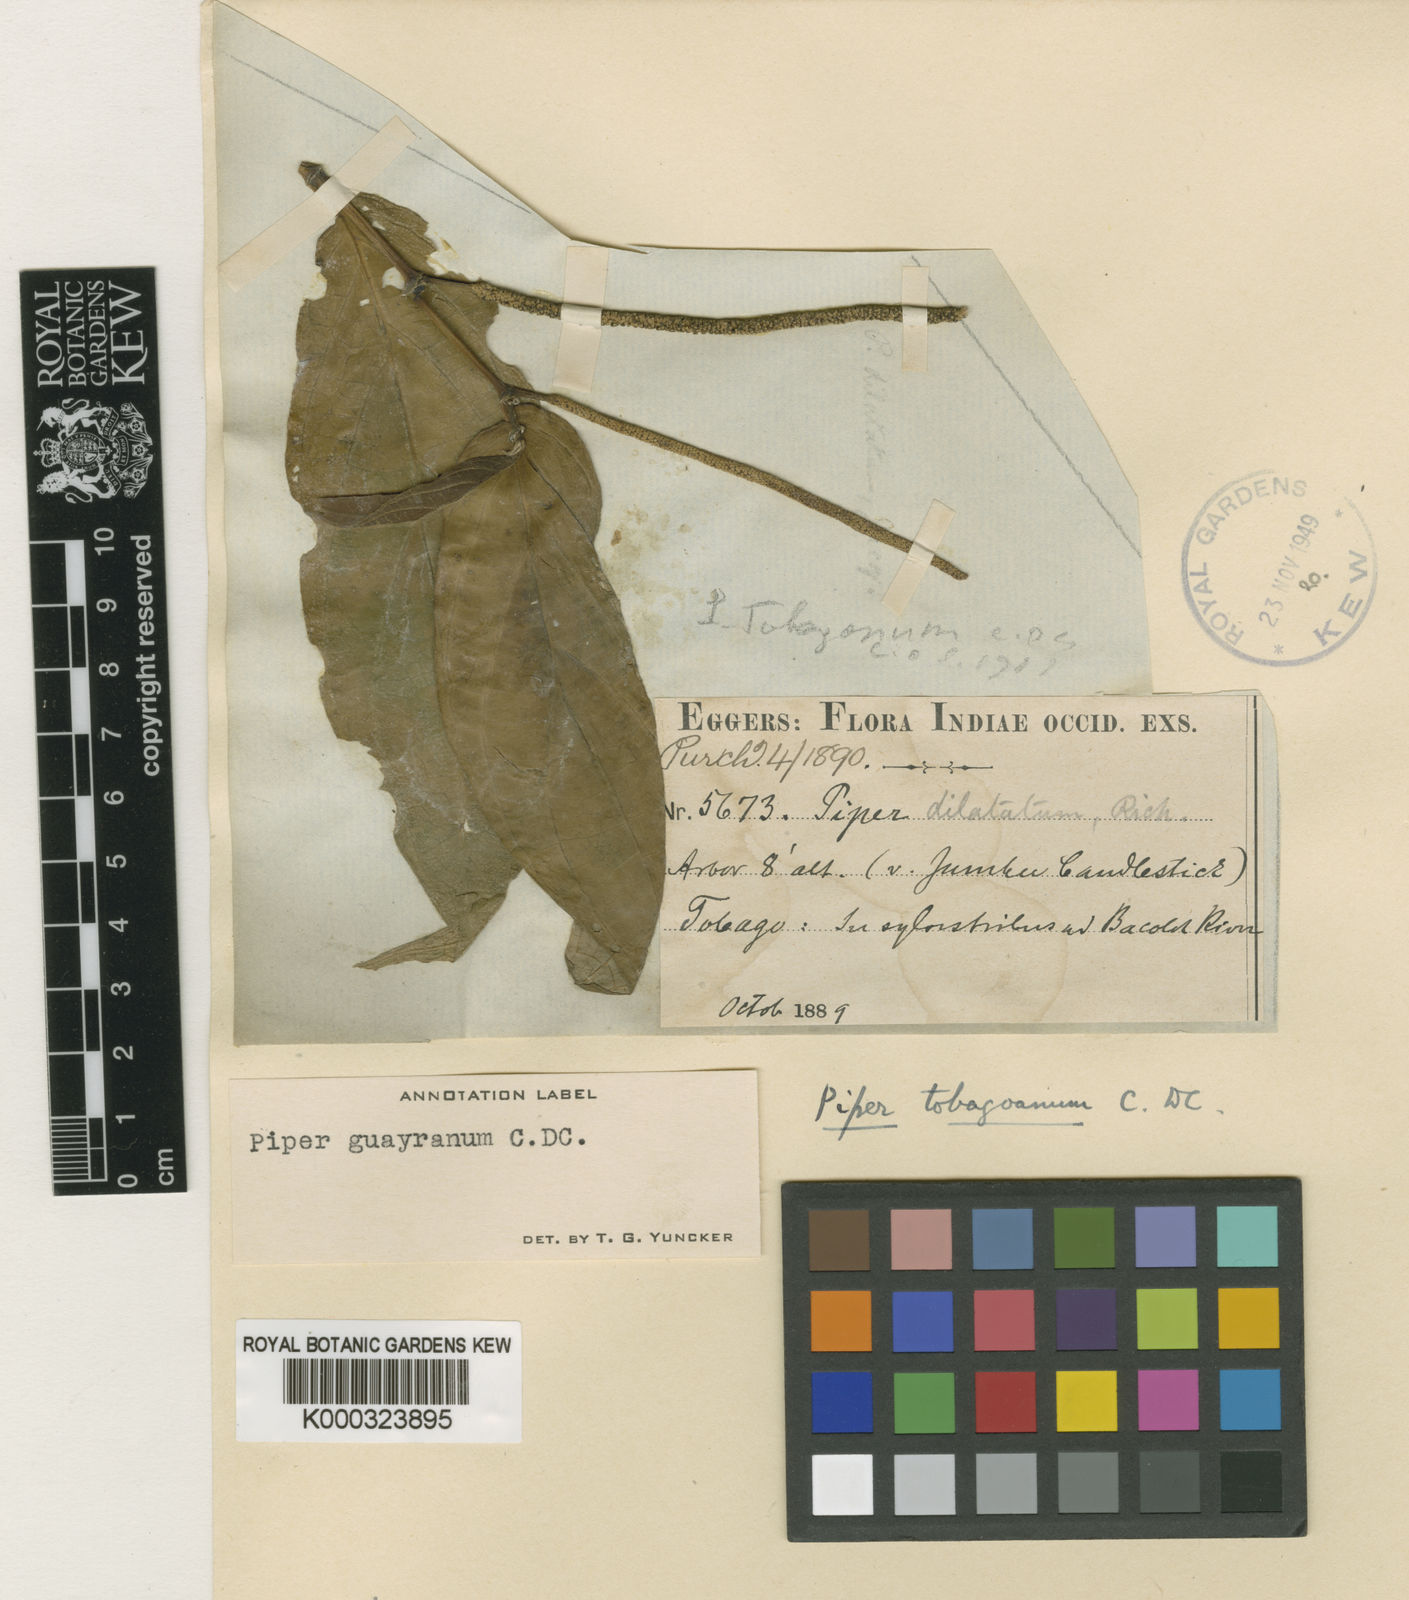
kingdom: Plantae
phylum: Tracheophyta
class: Magnoliopsida
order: Piperales
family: Piperaceae
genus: Piper
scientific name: Piper dilatatum
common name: Higuillo
